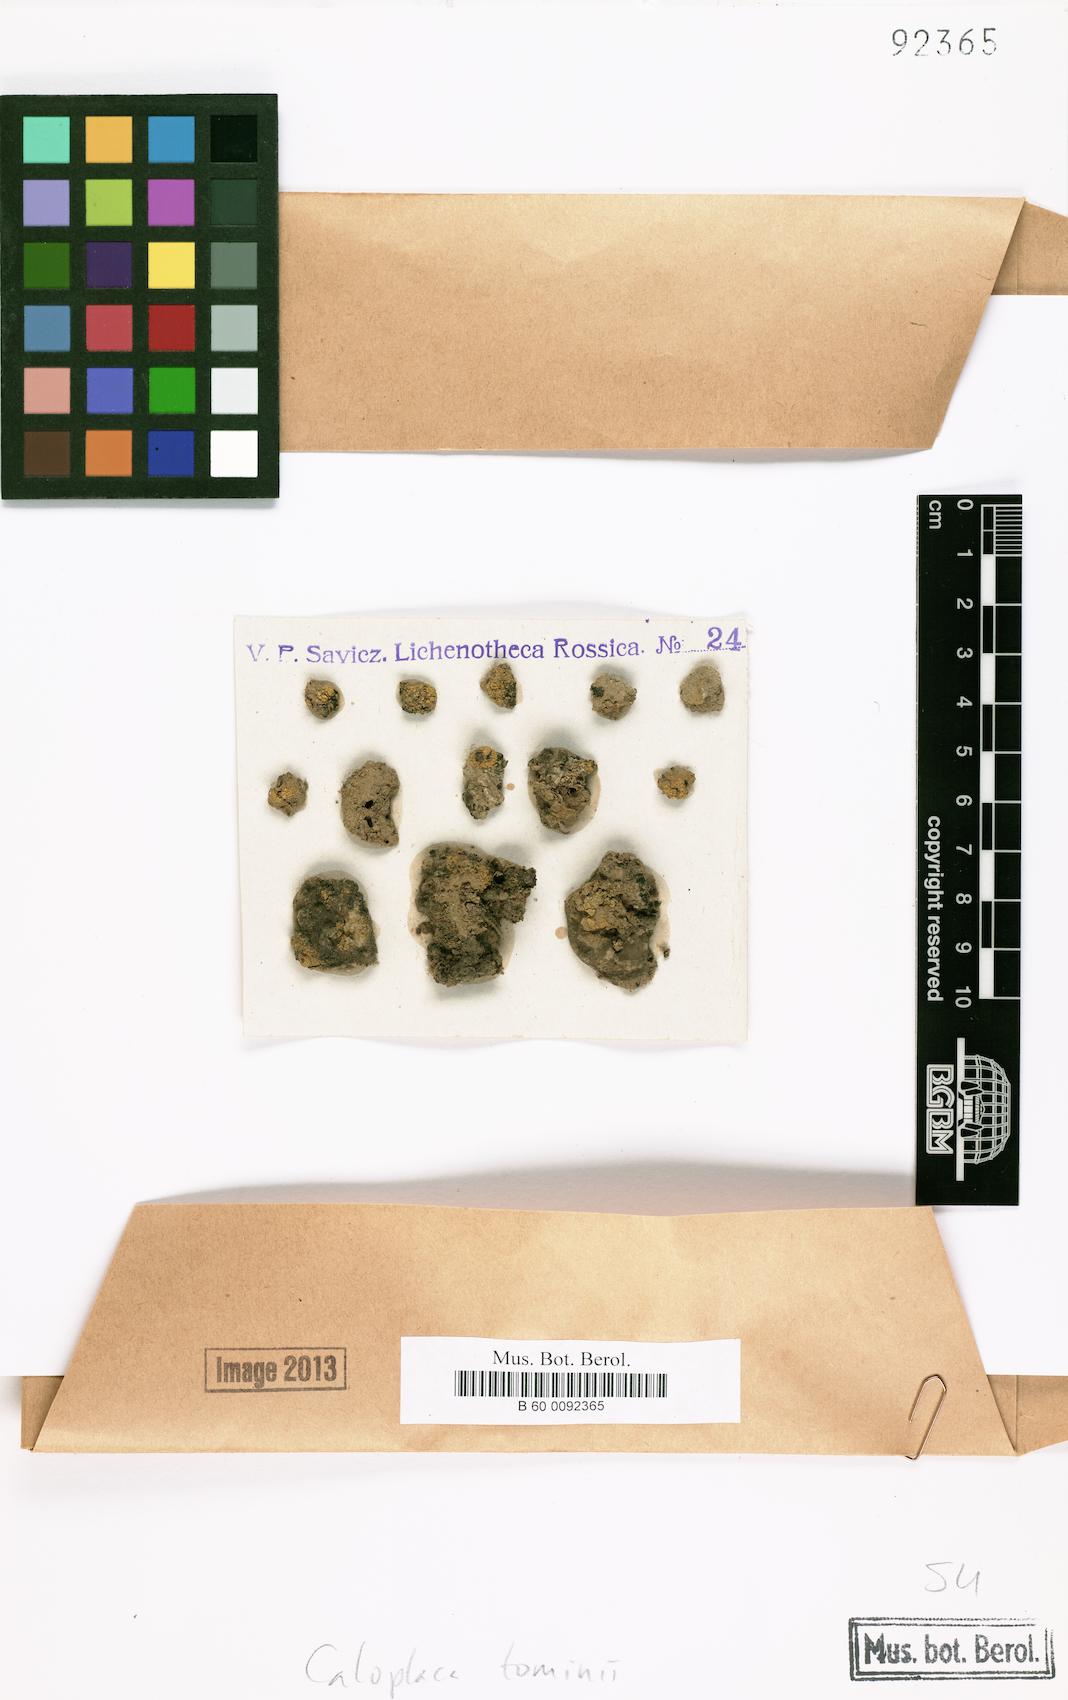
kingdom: Fungi
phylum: Ascomycota
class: Lecanoromycetes
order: Teloschistales
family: Teloschistaceae
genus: Xanthocarpia
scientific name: Xanthocarpia tominii
